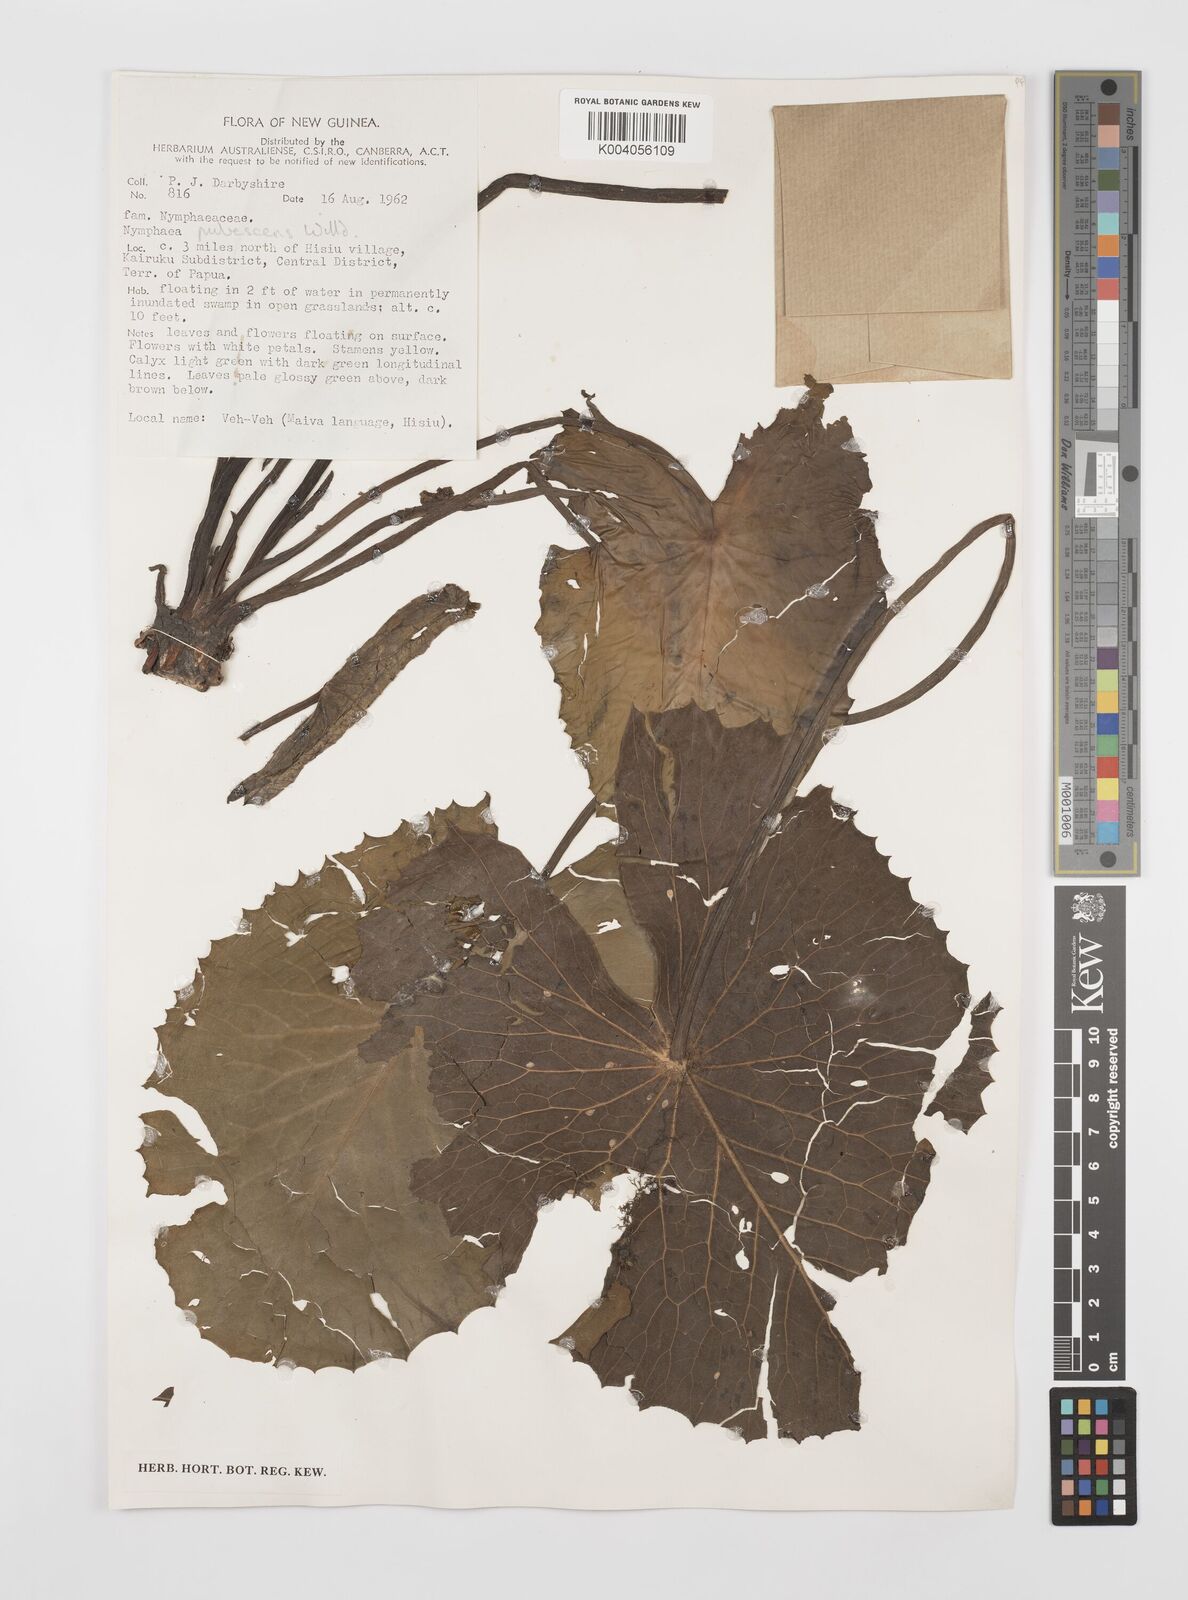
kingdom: Plantae
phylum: Tracheophyta
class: Magnoliopsida
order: Nymphaeales
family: Nymphaeaceae
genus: Nymphaea
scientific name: Nymphaea pubescens
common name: Hairy water lily
